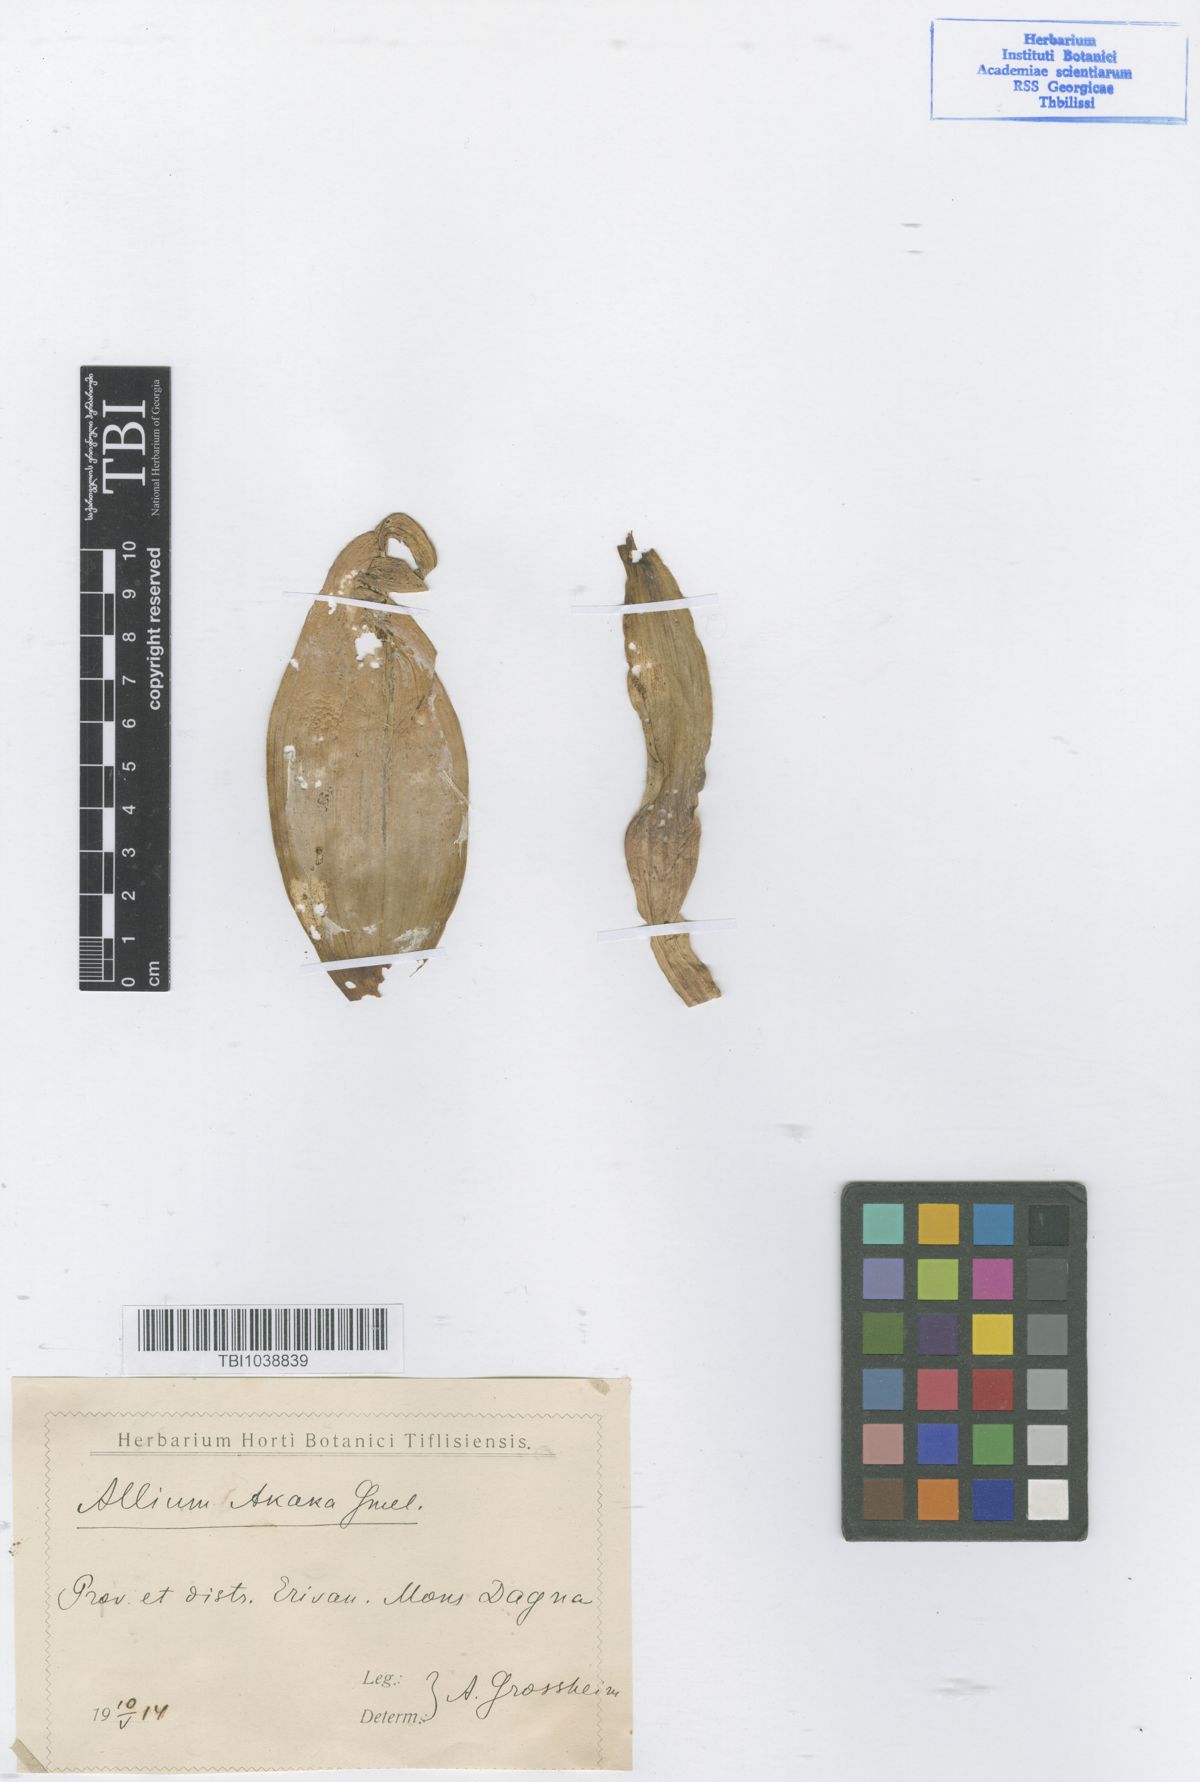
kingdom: Plantae
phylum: Tracheophyta
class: Liliopsida
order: Asparagales
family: Amaryllidaceae
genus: Allium
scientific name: Allium materculae
